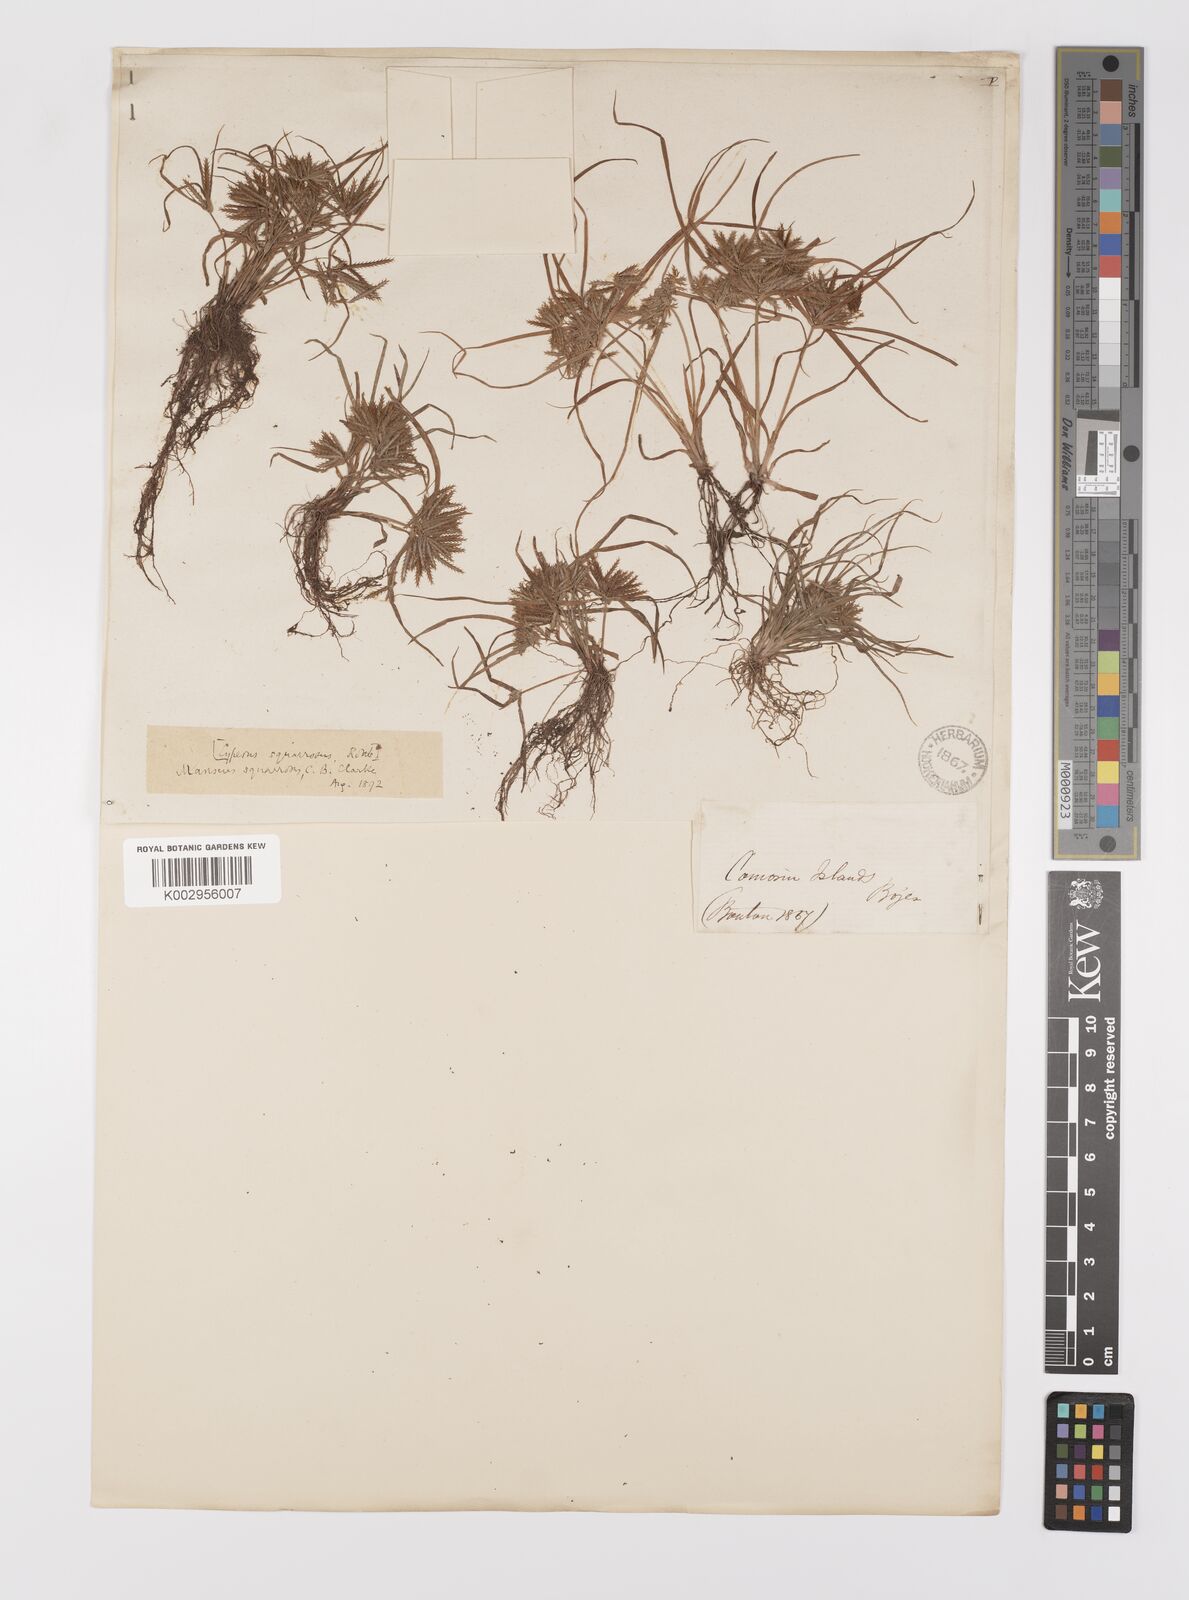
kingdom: Plantae
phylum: Tracheophyta
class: Liliopsida
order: Poales
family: Cyperaceae
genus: Cyperus
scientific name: Cyperus squarrosus
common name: Awned cyperus
